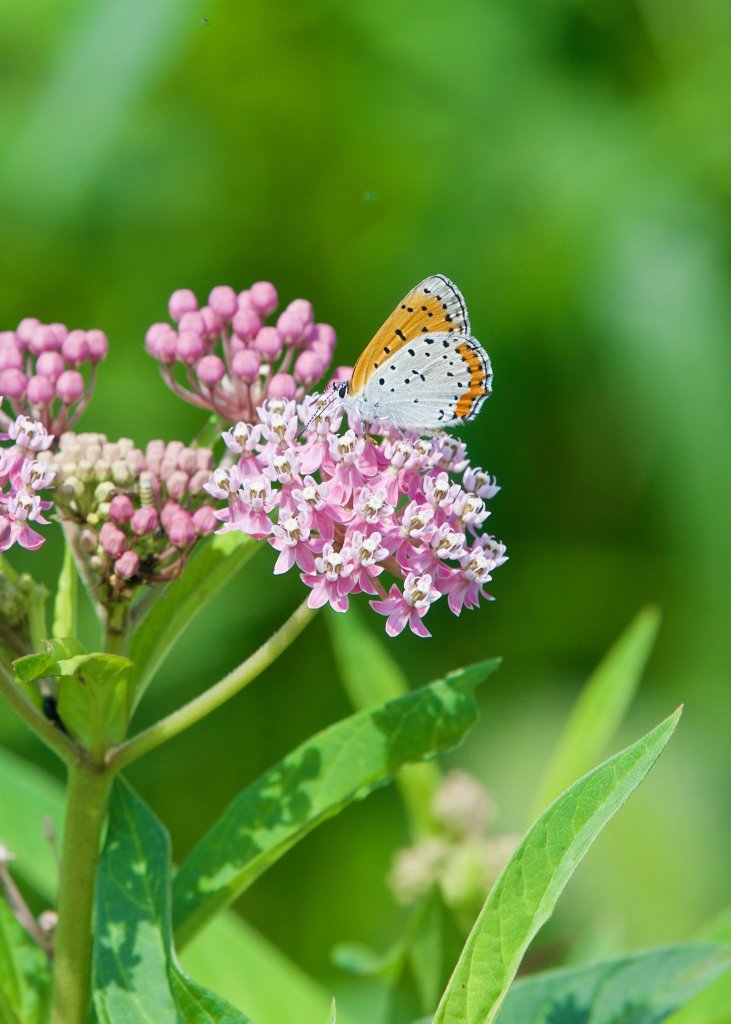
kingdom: Animalia
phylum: Arthropoda
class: Insecta
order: Lepidoptera
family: Sesiidae
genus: Sesia
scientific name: Sesia Lycaena hyllus
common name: Bronze Copper
